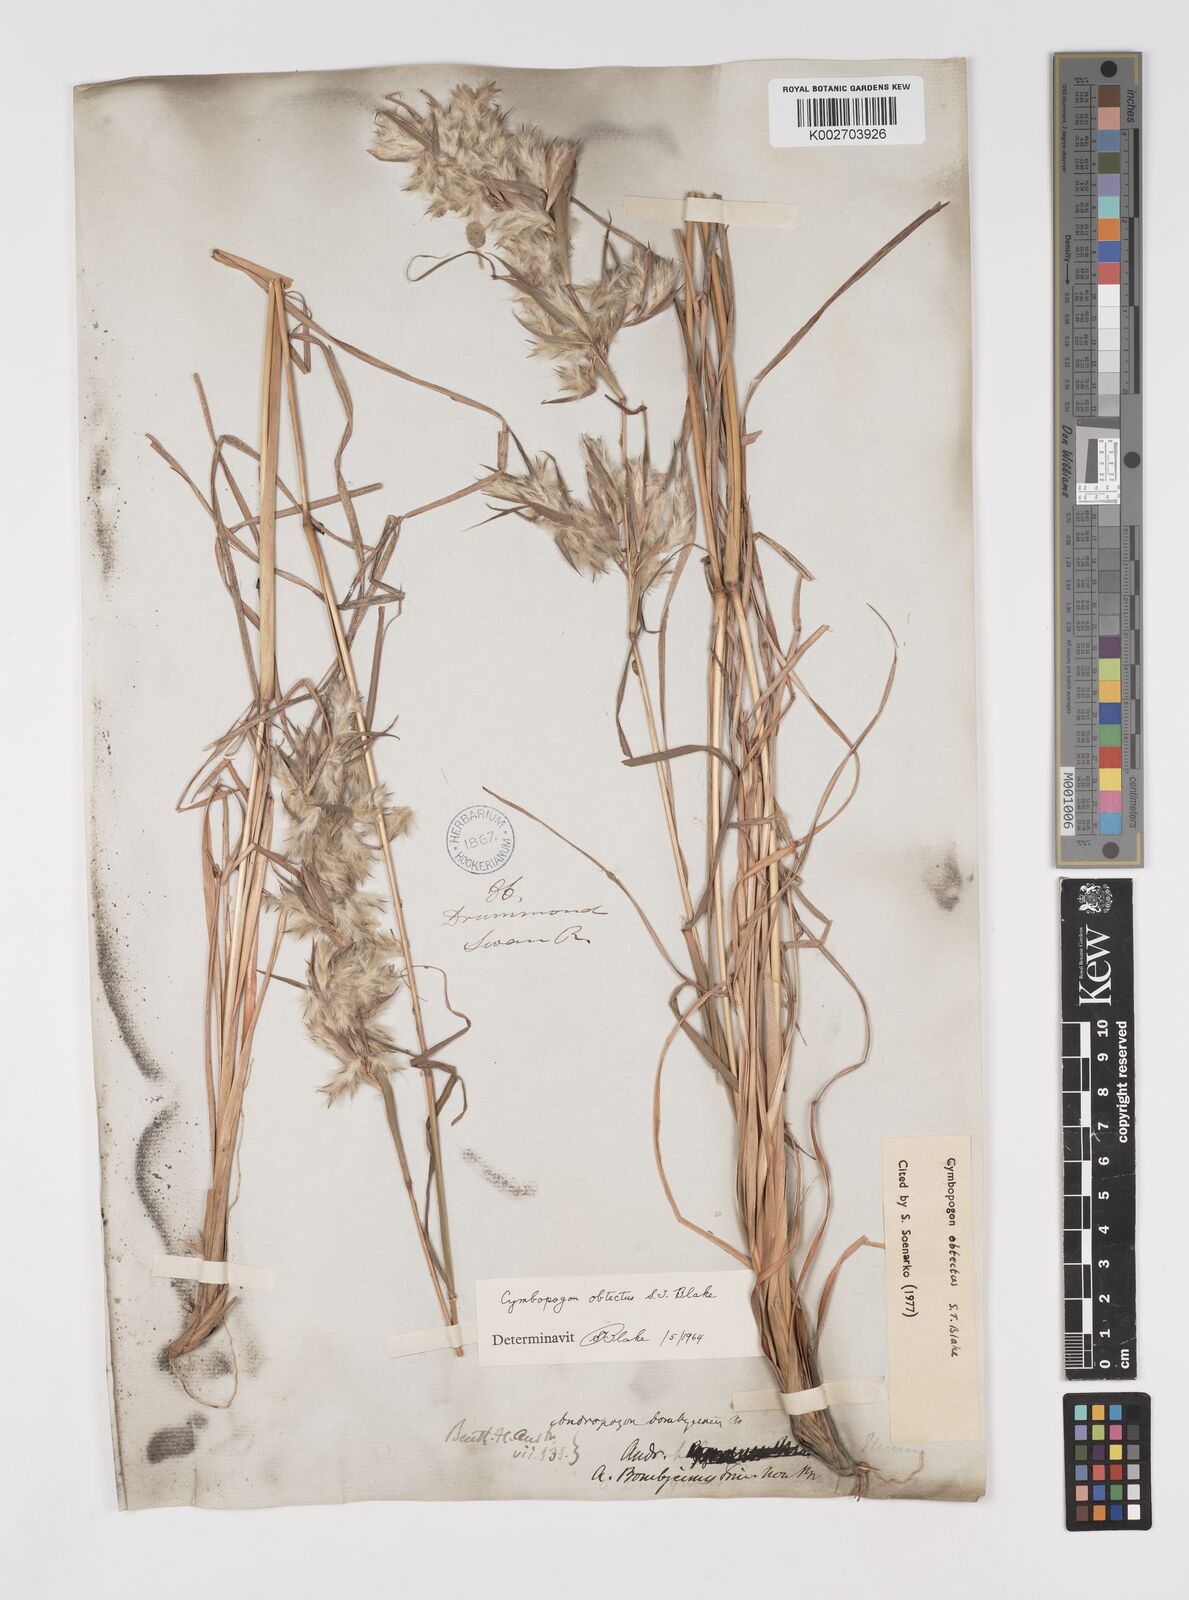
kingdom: Plantae
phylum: Tracheophyta
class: Liliopsida
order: Poales
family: Poaceae
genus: Cymbopogon
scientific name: Cymbopogon obtectus
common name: Silky heads
